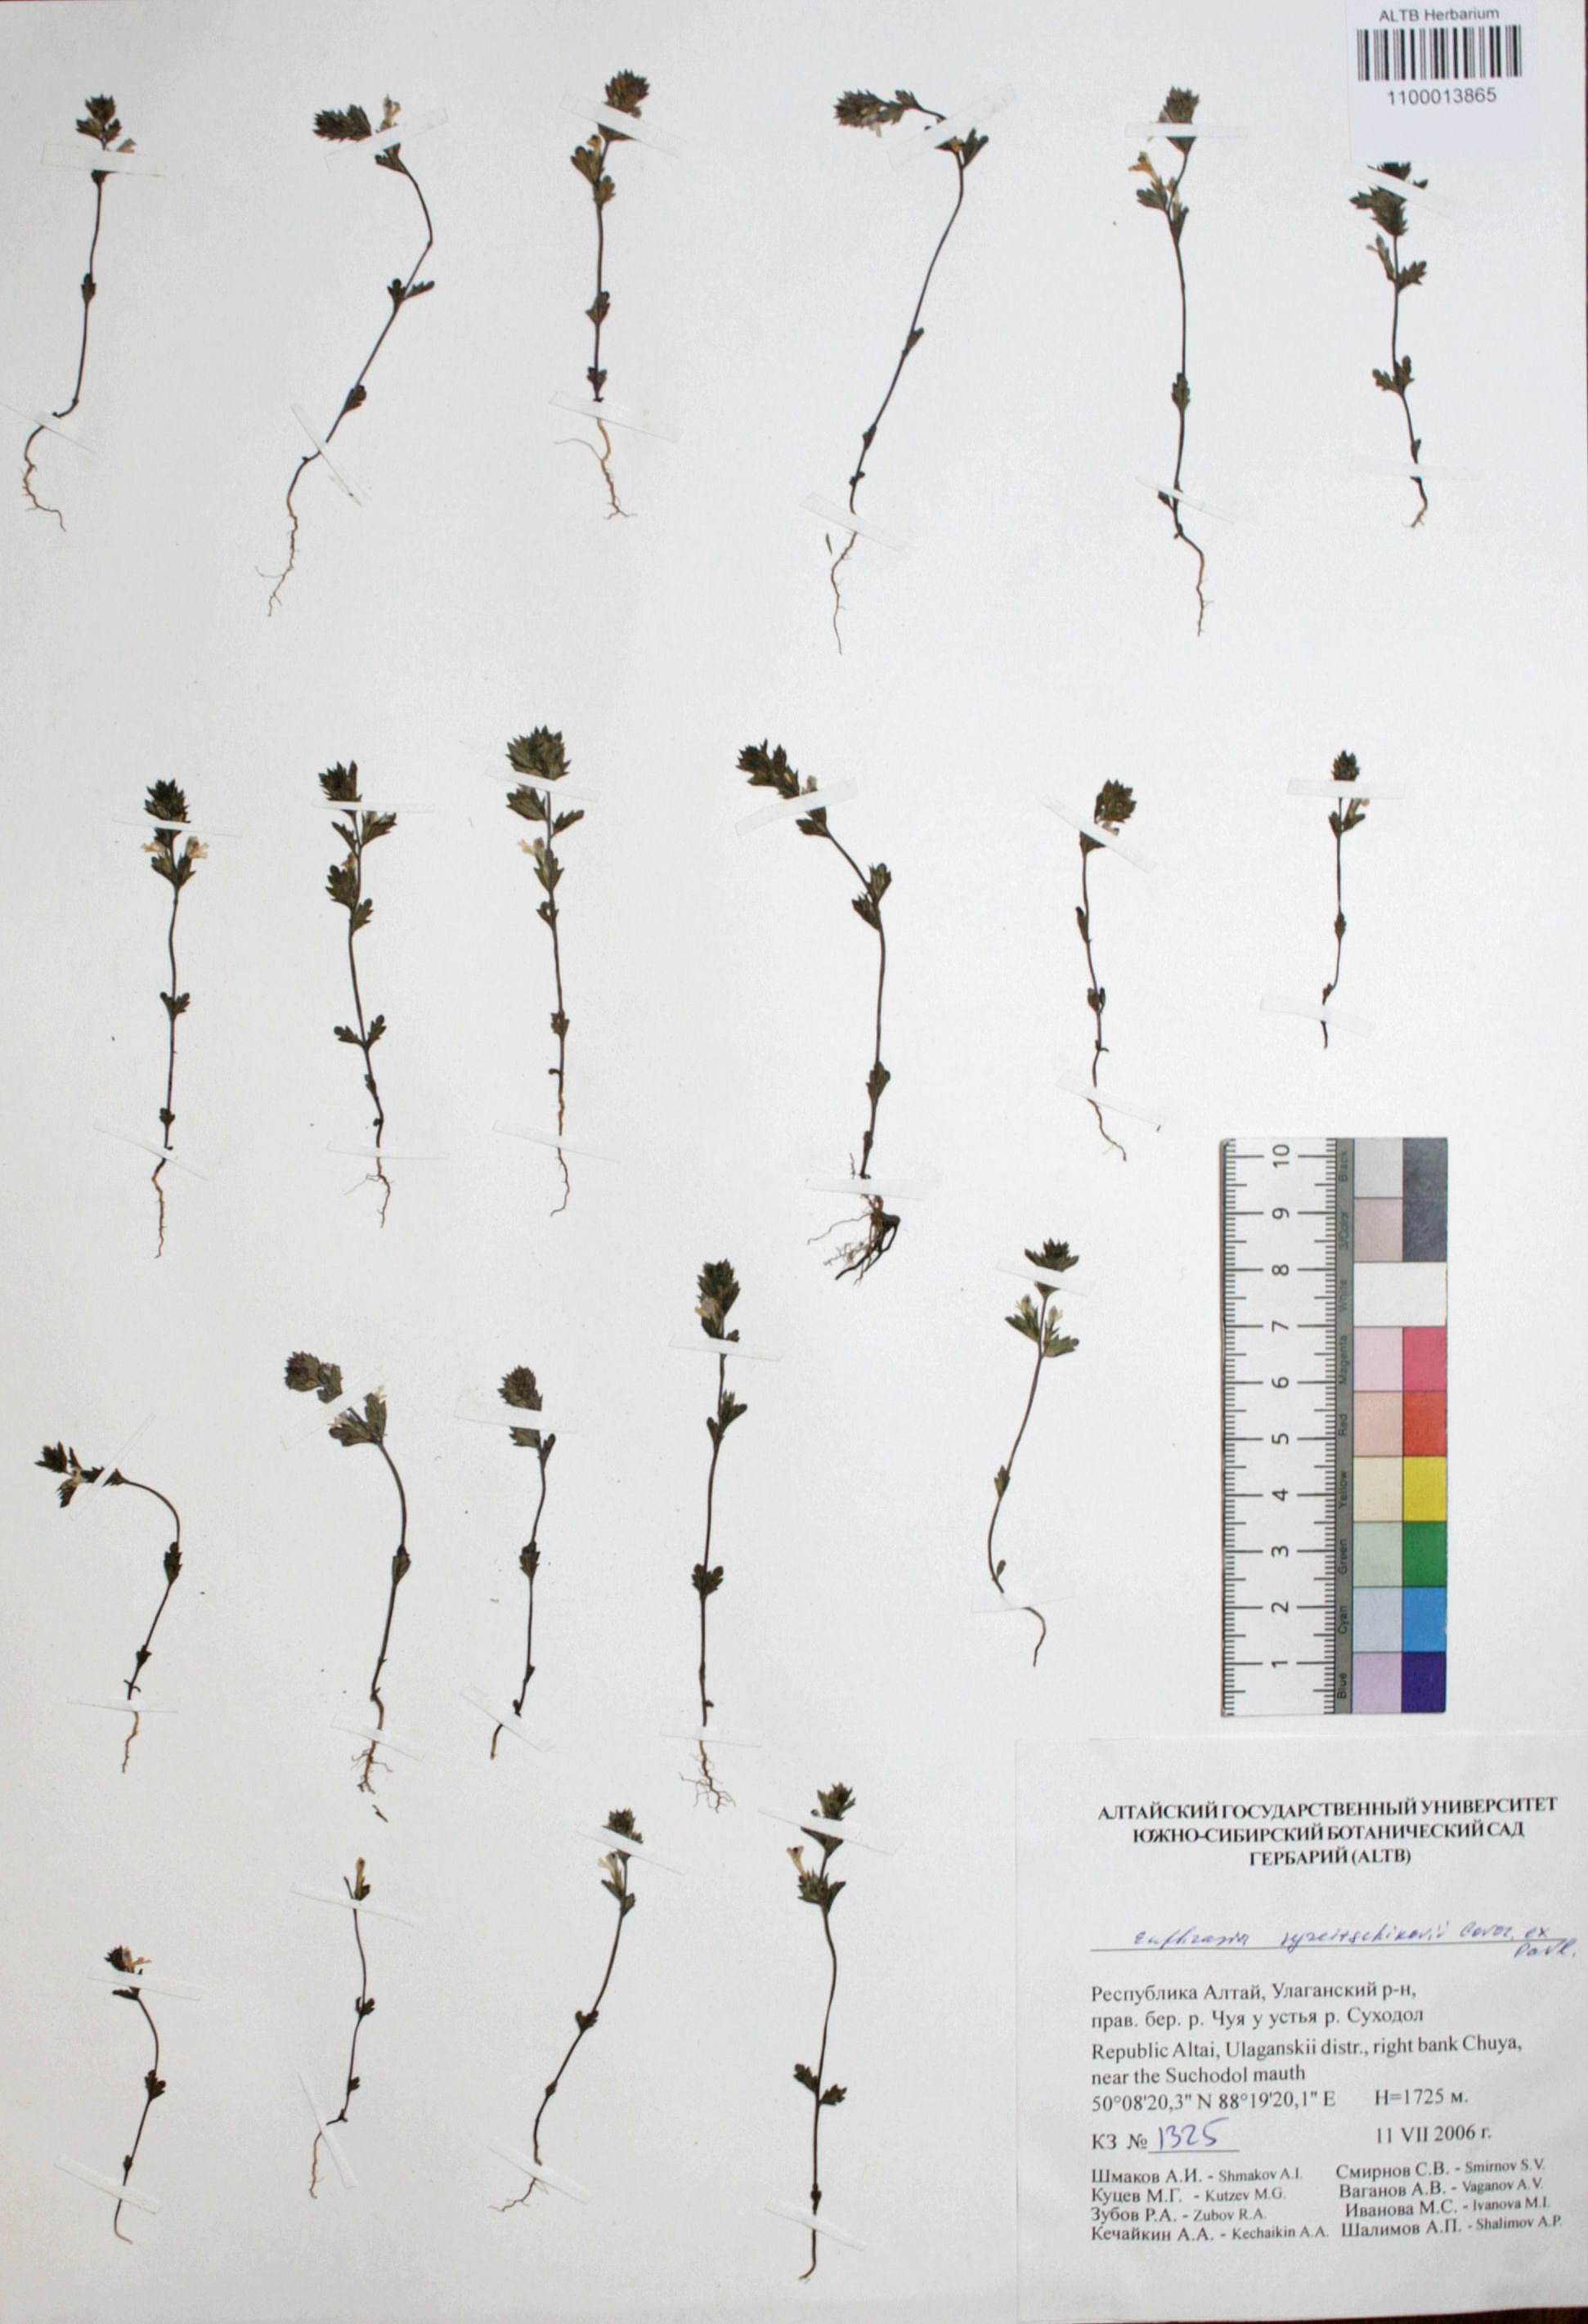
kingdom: Plantae
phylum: Tracheophyta
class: Magnoliopsida
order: Lamiales
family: Orobanchaceae
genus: Euphrasia
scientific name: Euphrasia syreitschikovii
